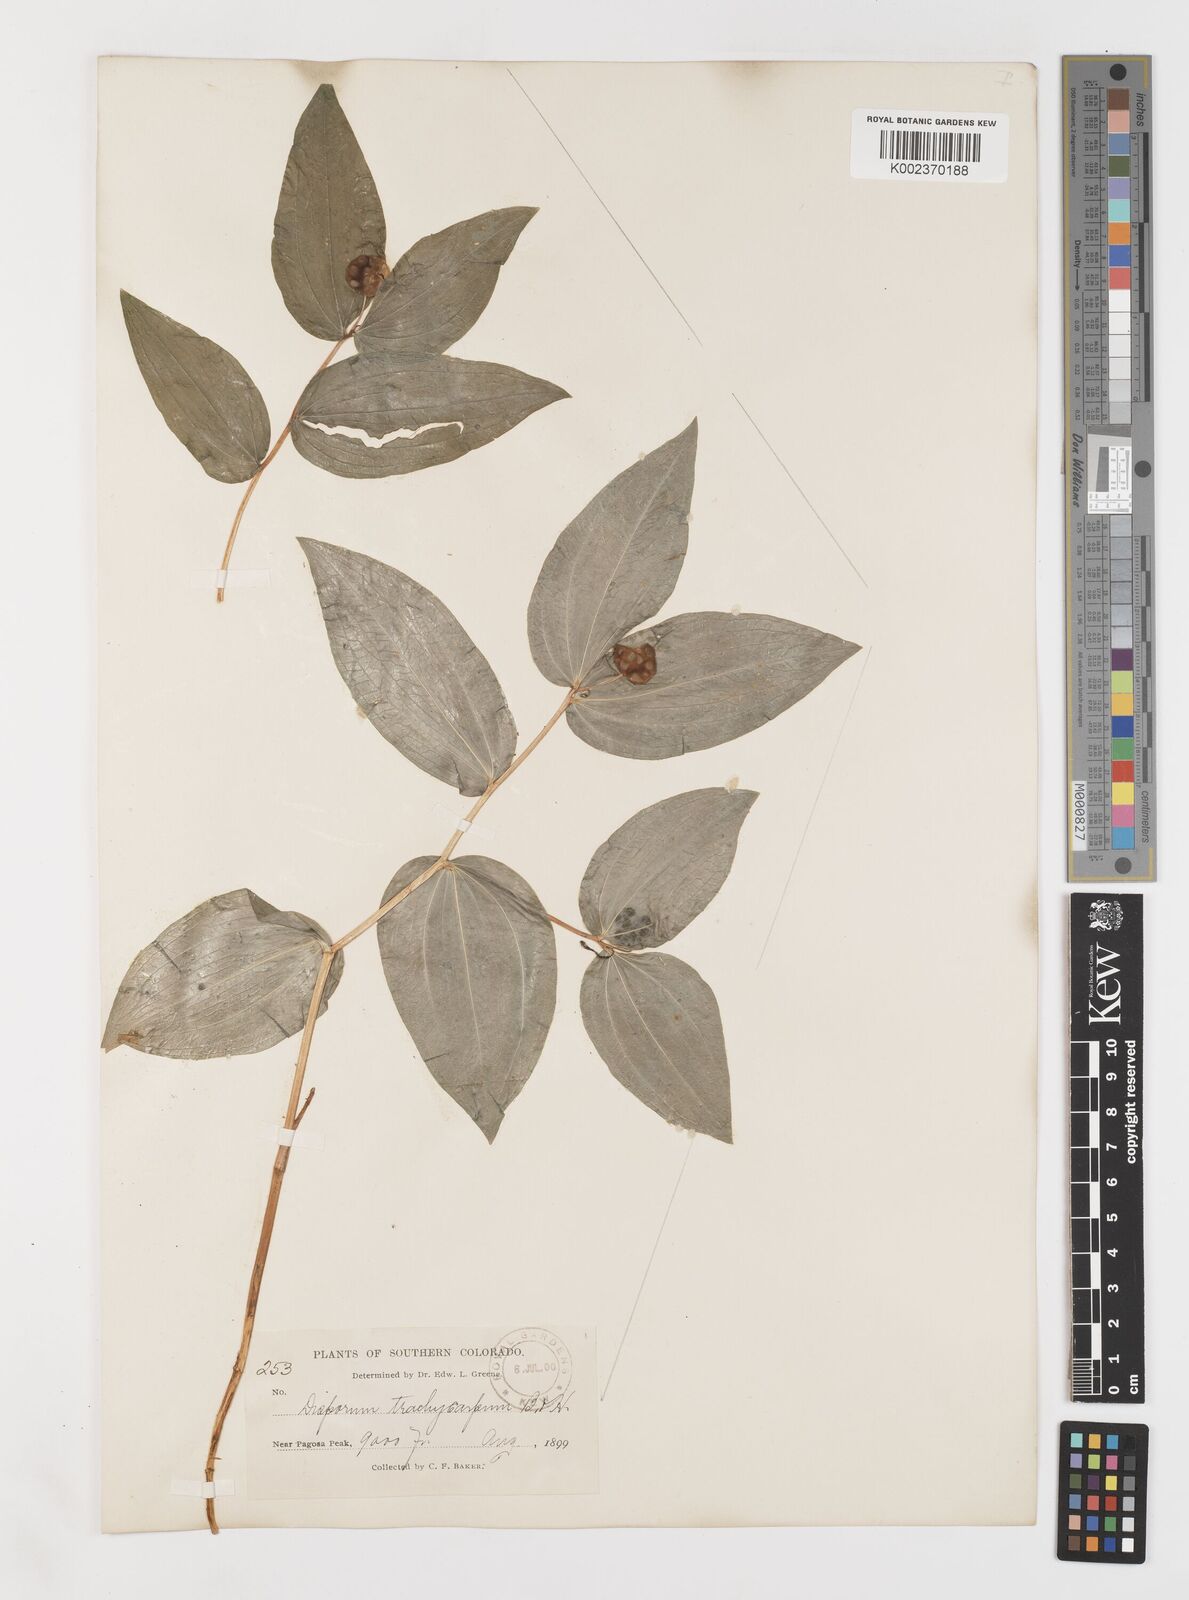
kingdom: Plantae
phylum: Tracheophyta
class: Liliopsida
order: Liliales
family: Liliaceae
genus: Prosartes
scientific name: Prosartes trachycarpa
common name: Rough-fruit fairy-bells
